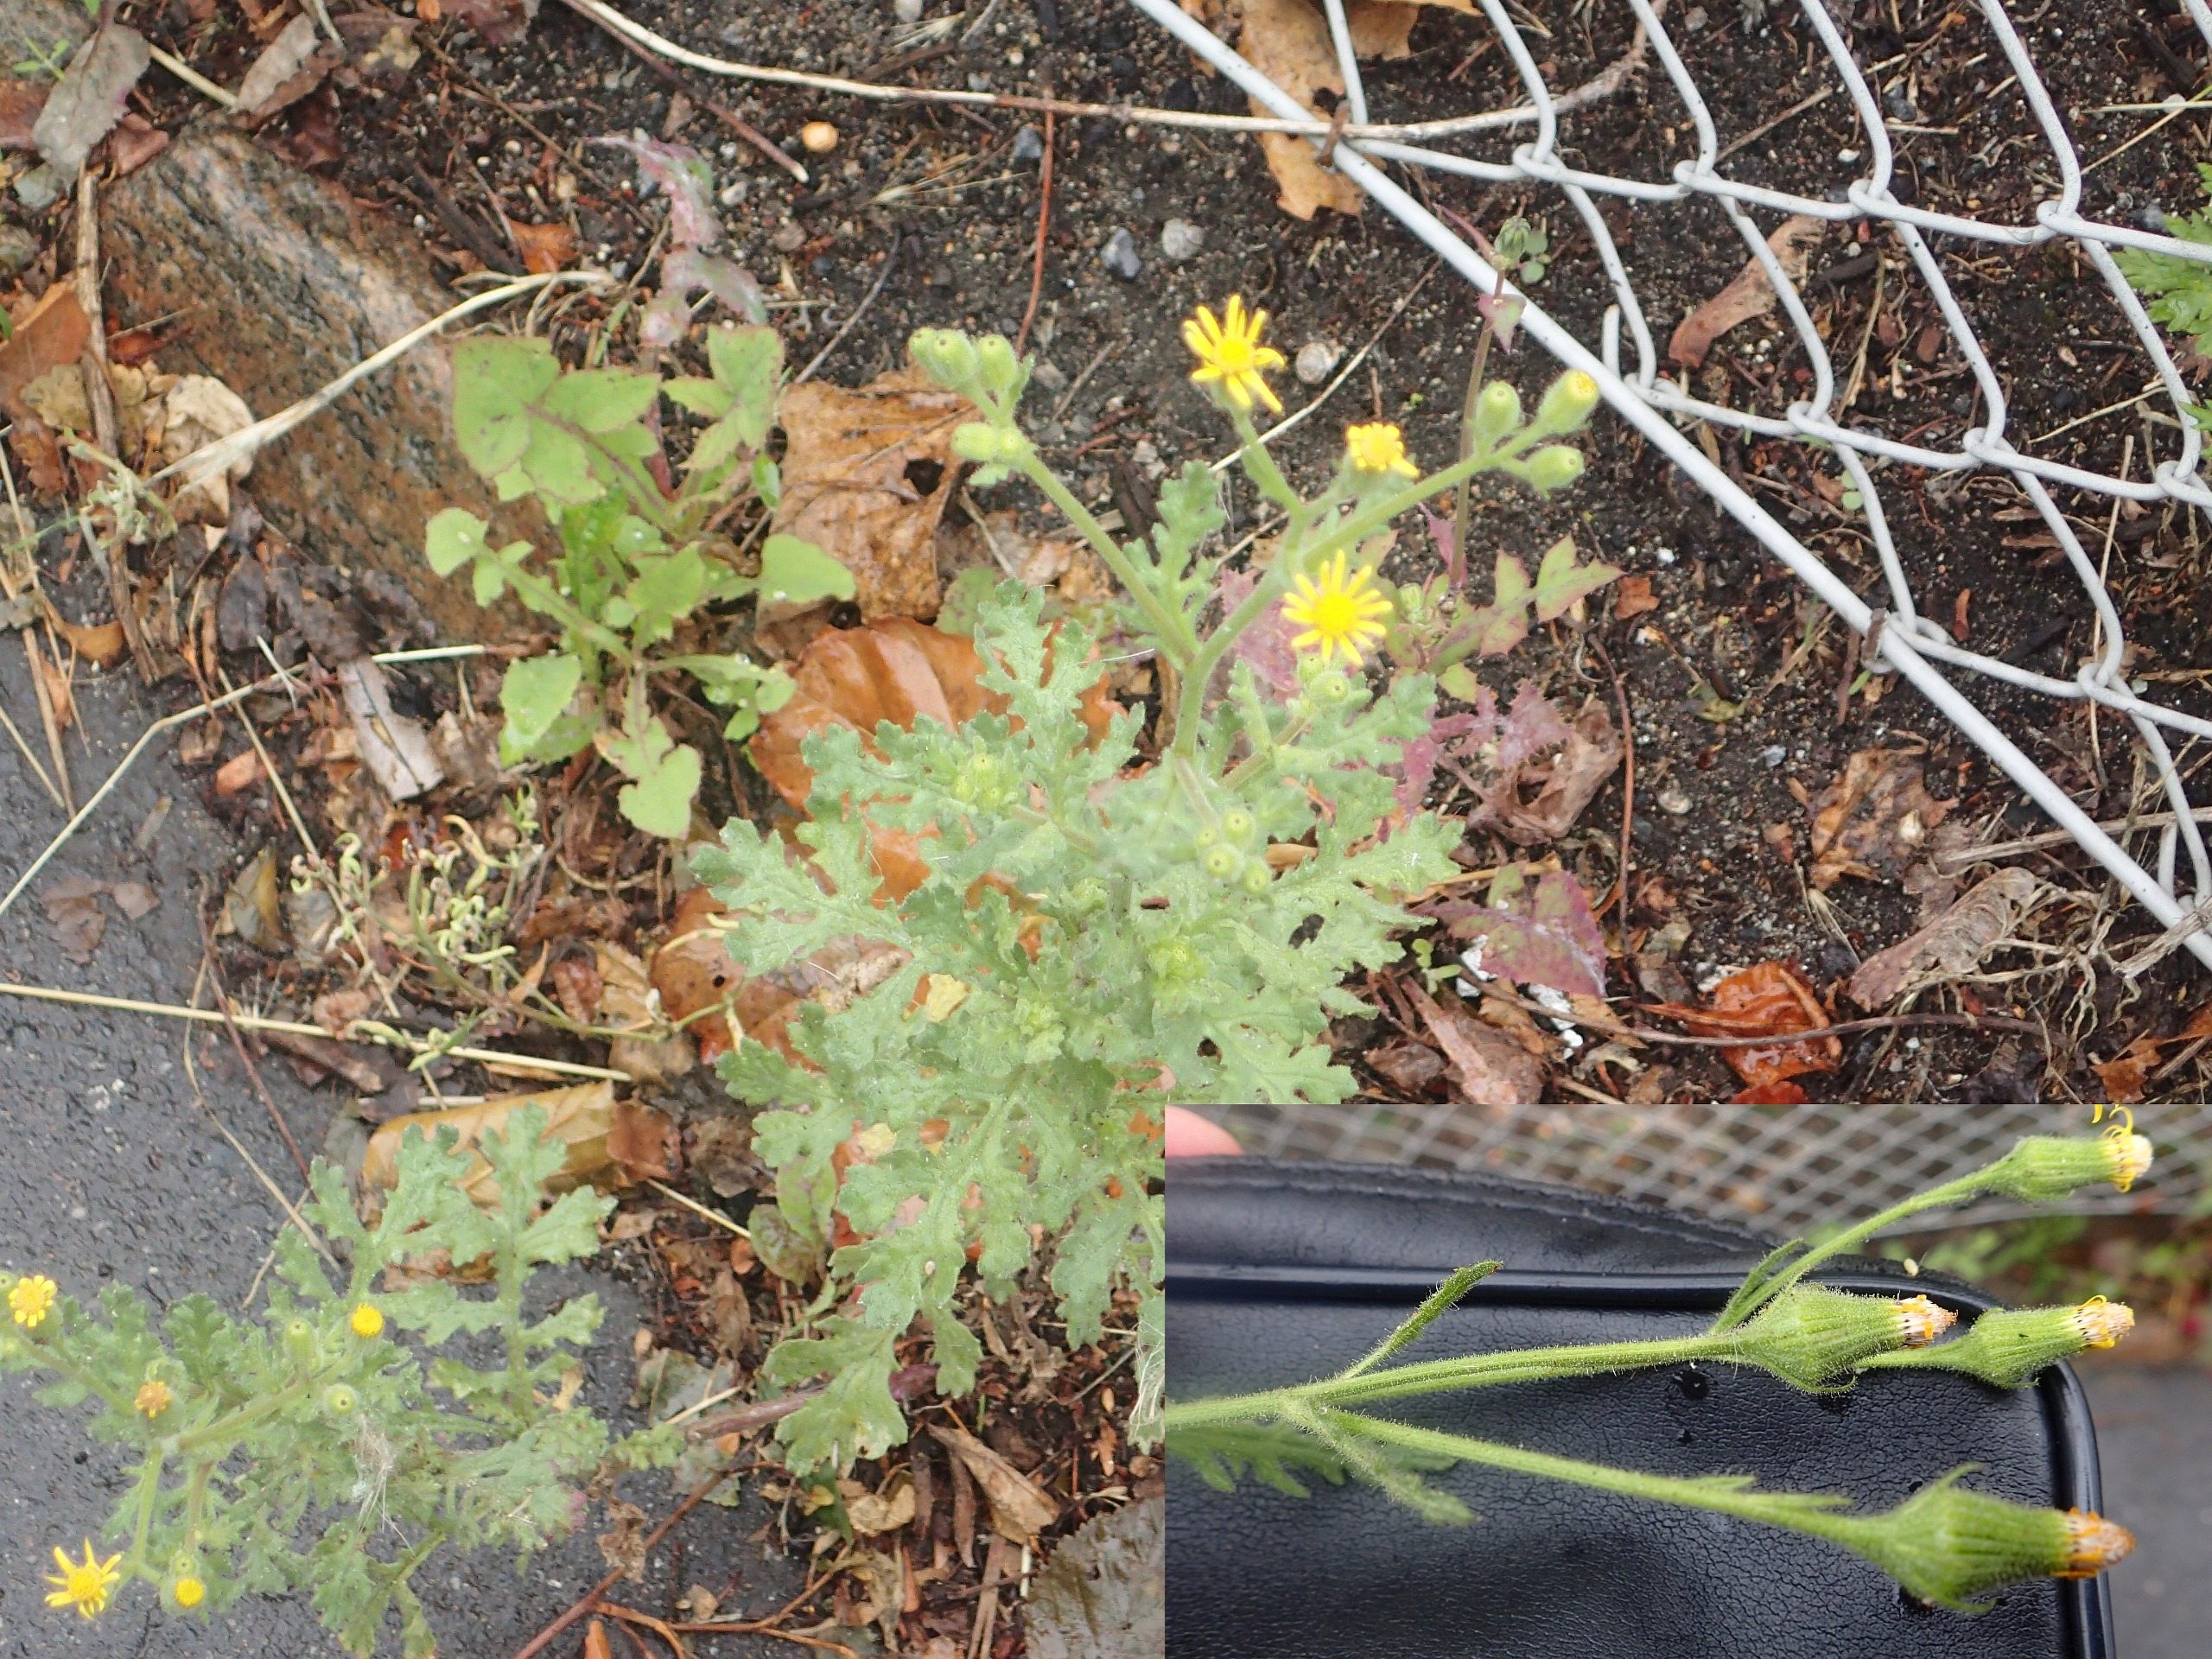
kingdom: Plantae
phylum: Tracheophyta
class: Magnoliopsida
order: Asterales
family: Asteraceae
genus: Senecio
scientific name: Senecio viscosus
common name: Klæbrig brandbæger
